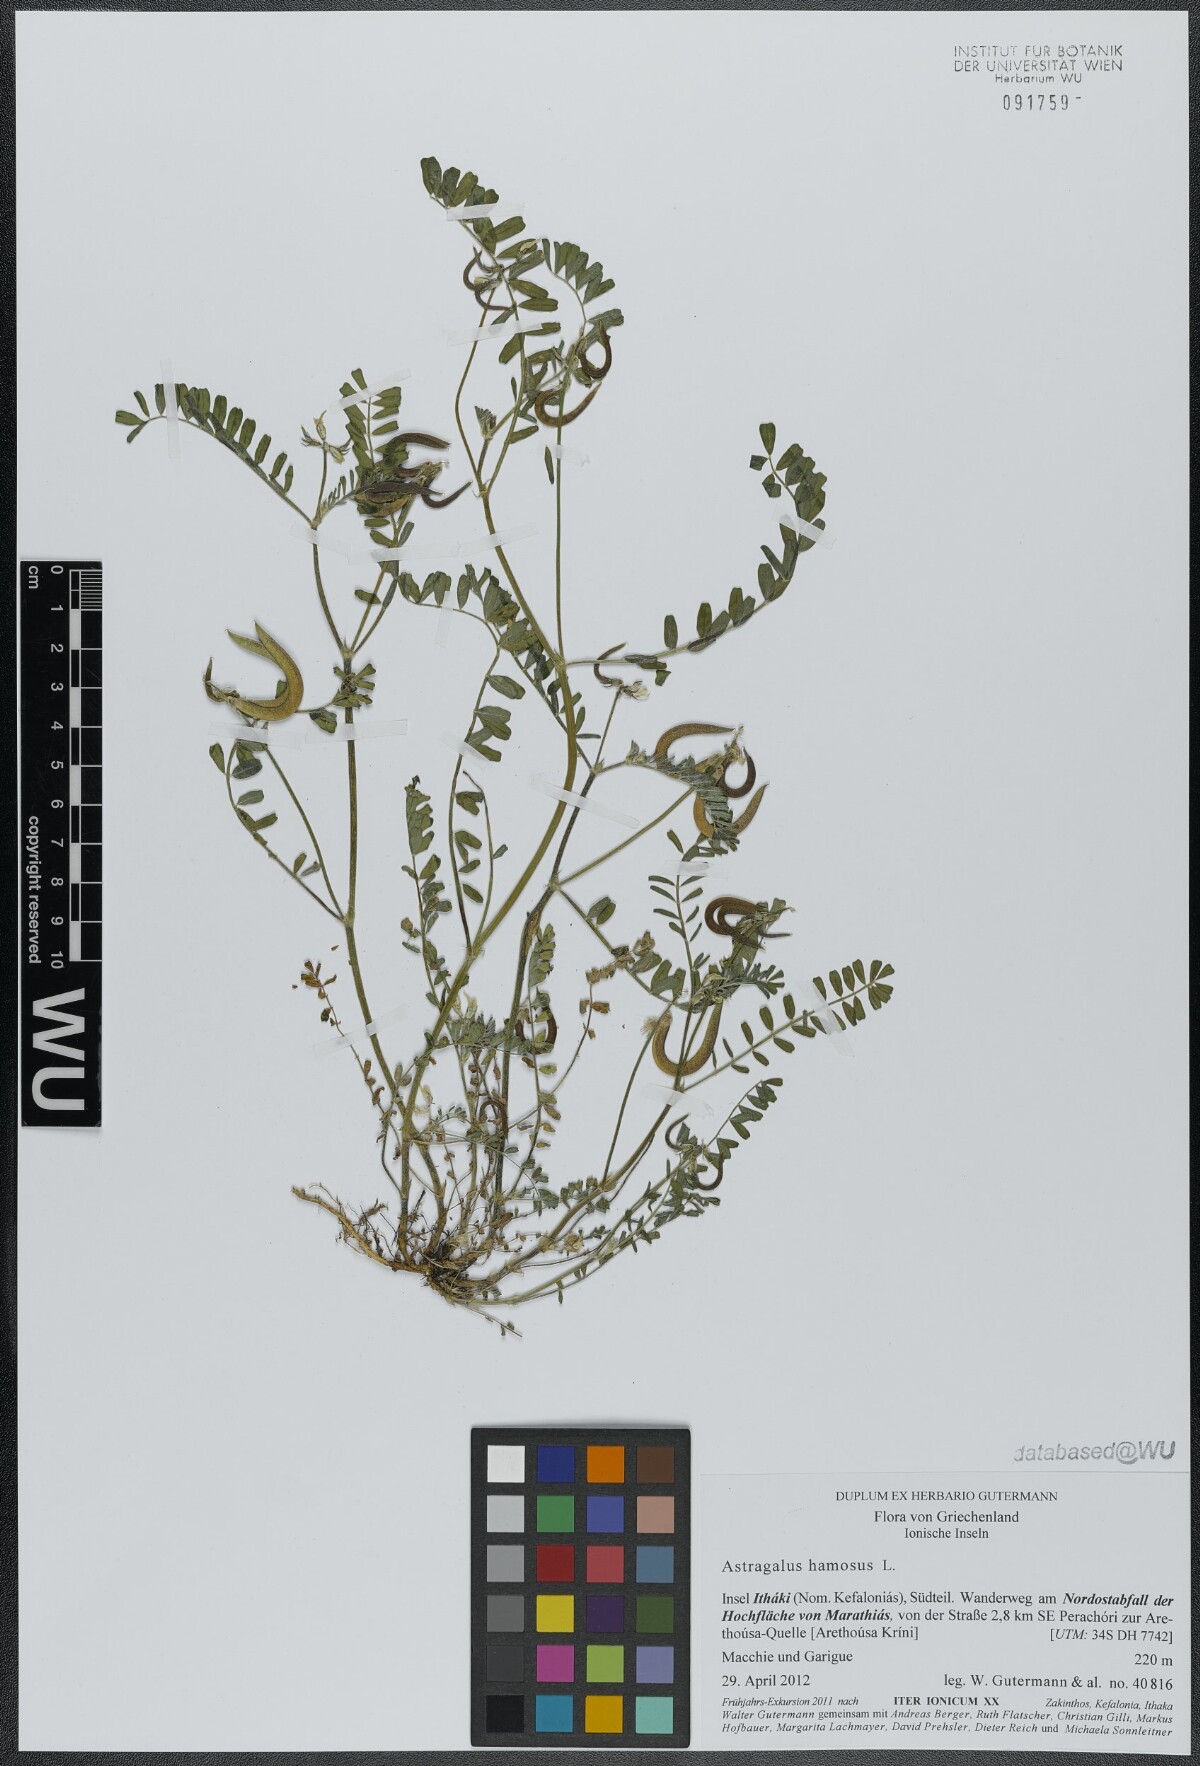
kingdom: Plantae
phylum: Tracheophyta
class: Magnoliopsida
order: Fabales
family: Fabaceae
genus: Astragalus
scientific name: Astragalus hamosus
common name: European milkvetch
